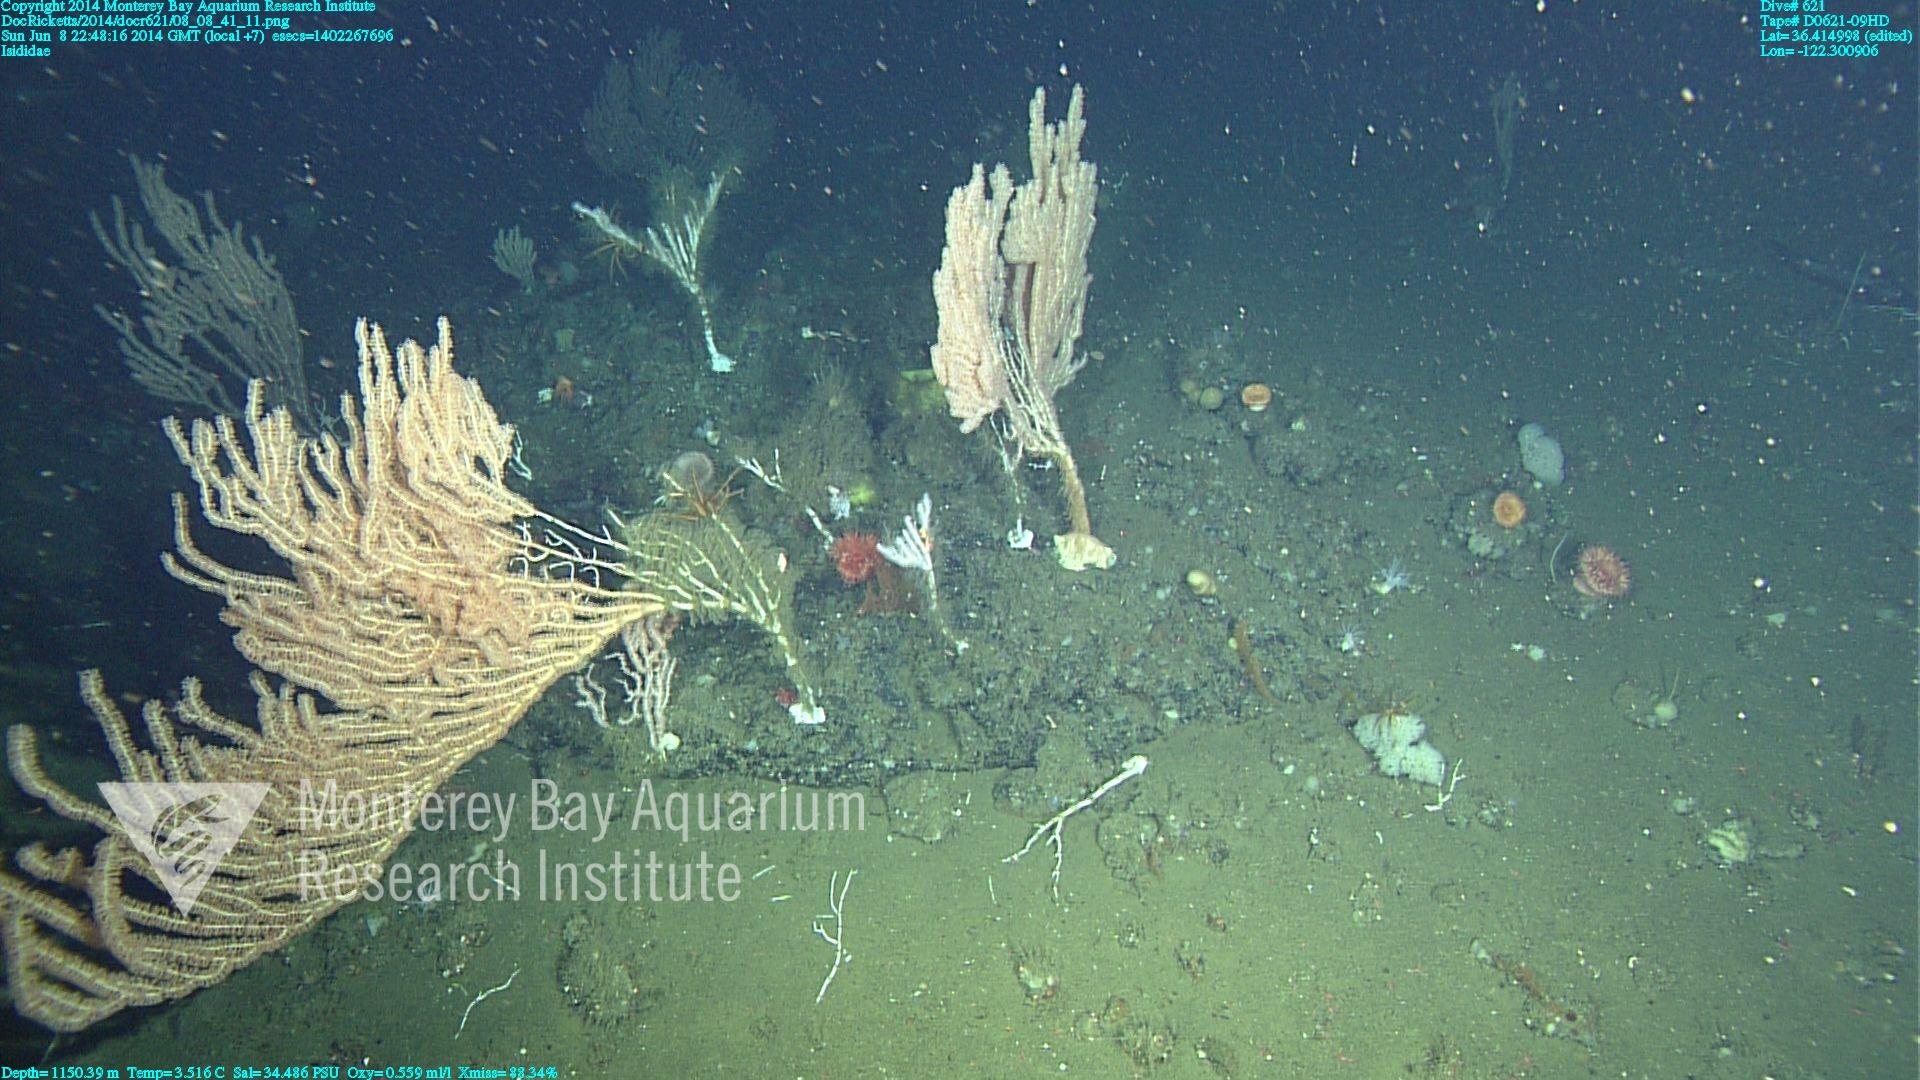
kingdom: Animalia
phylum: Cnidaria
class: Anthozoa
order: Scleralcyonacea
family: Keratoisididae
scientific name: Keratoisididae
